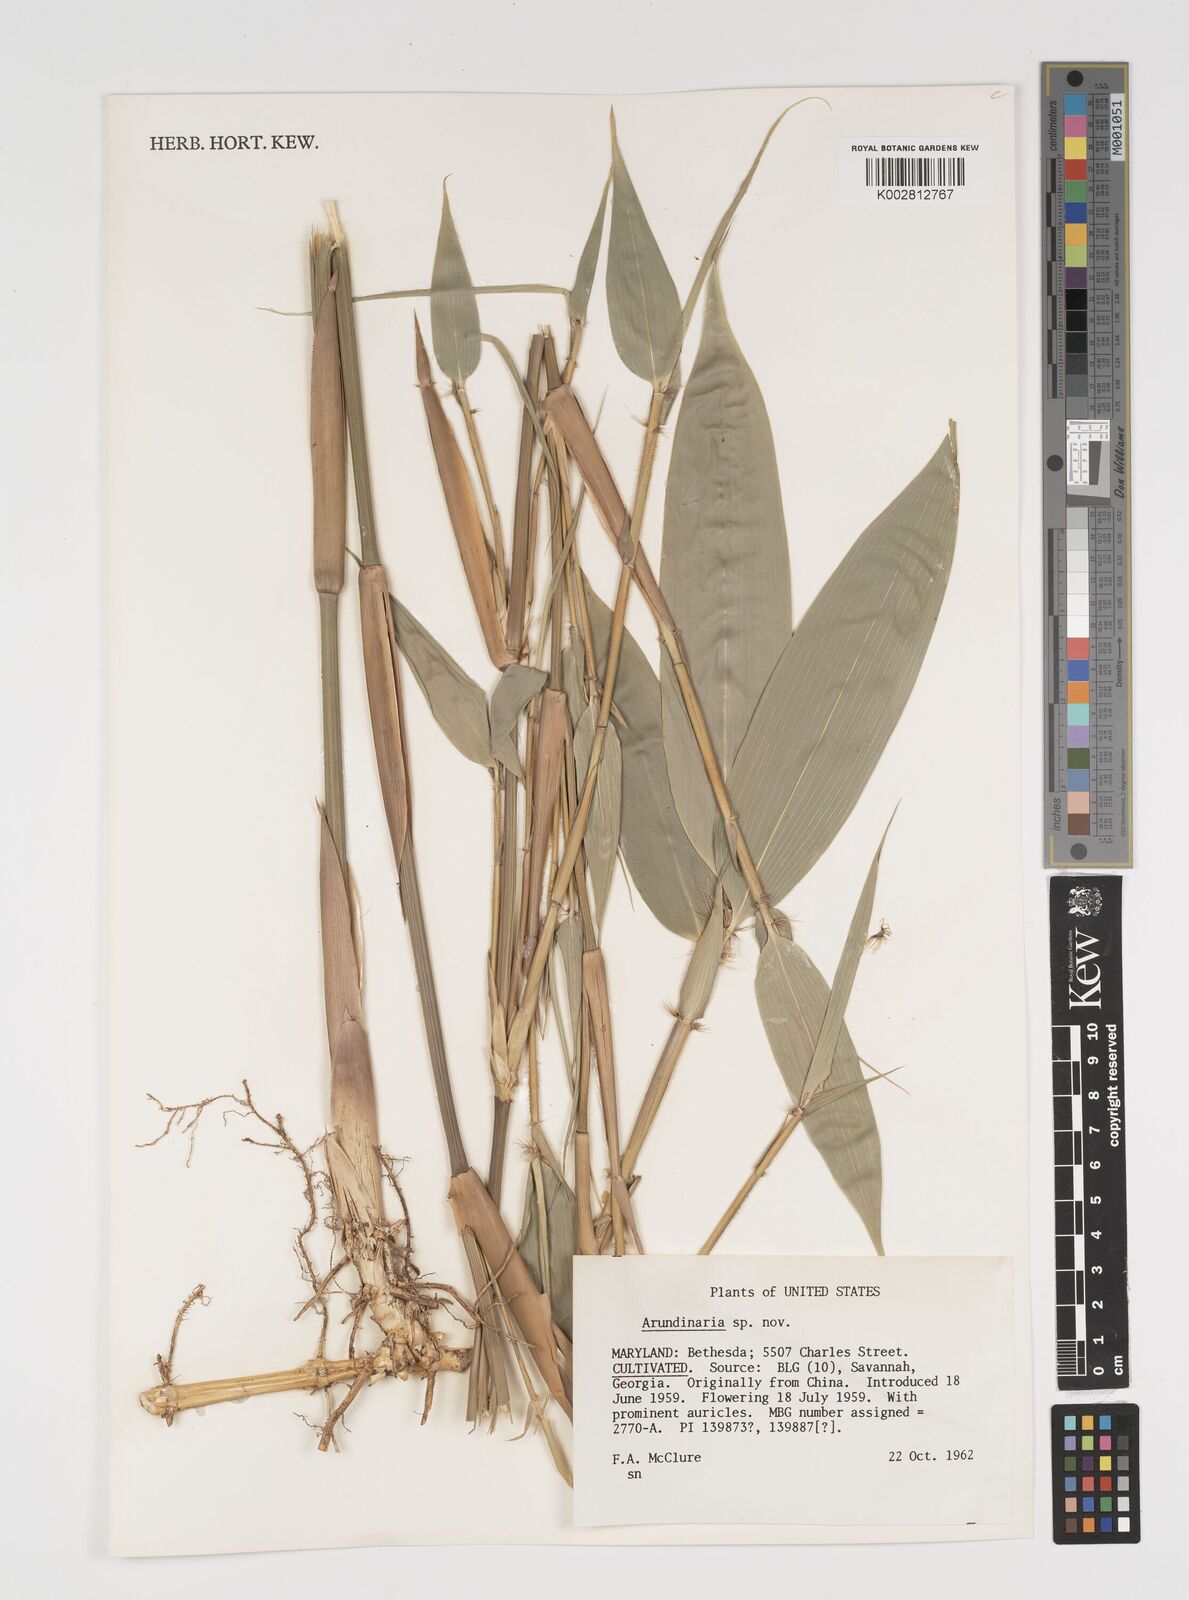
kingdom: Plantae
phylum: Tracheophyta
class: Liliopsida
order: Poales
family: Poaceae
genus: Arundinaria
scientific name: Arundinaria
